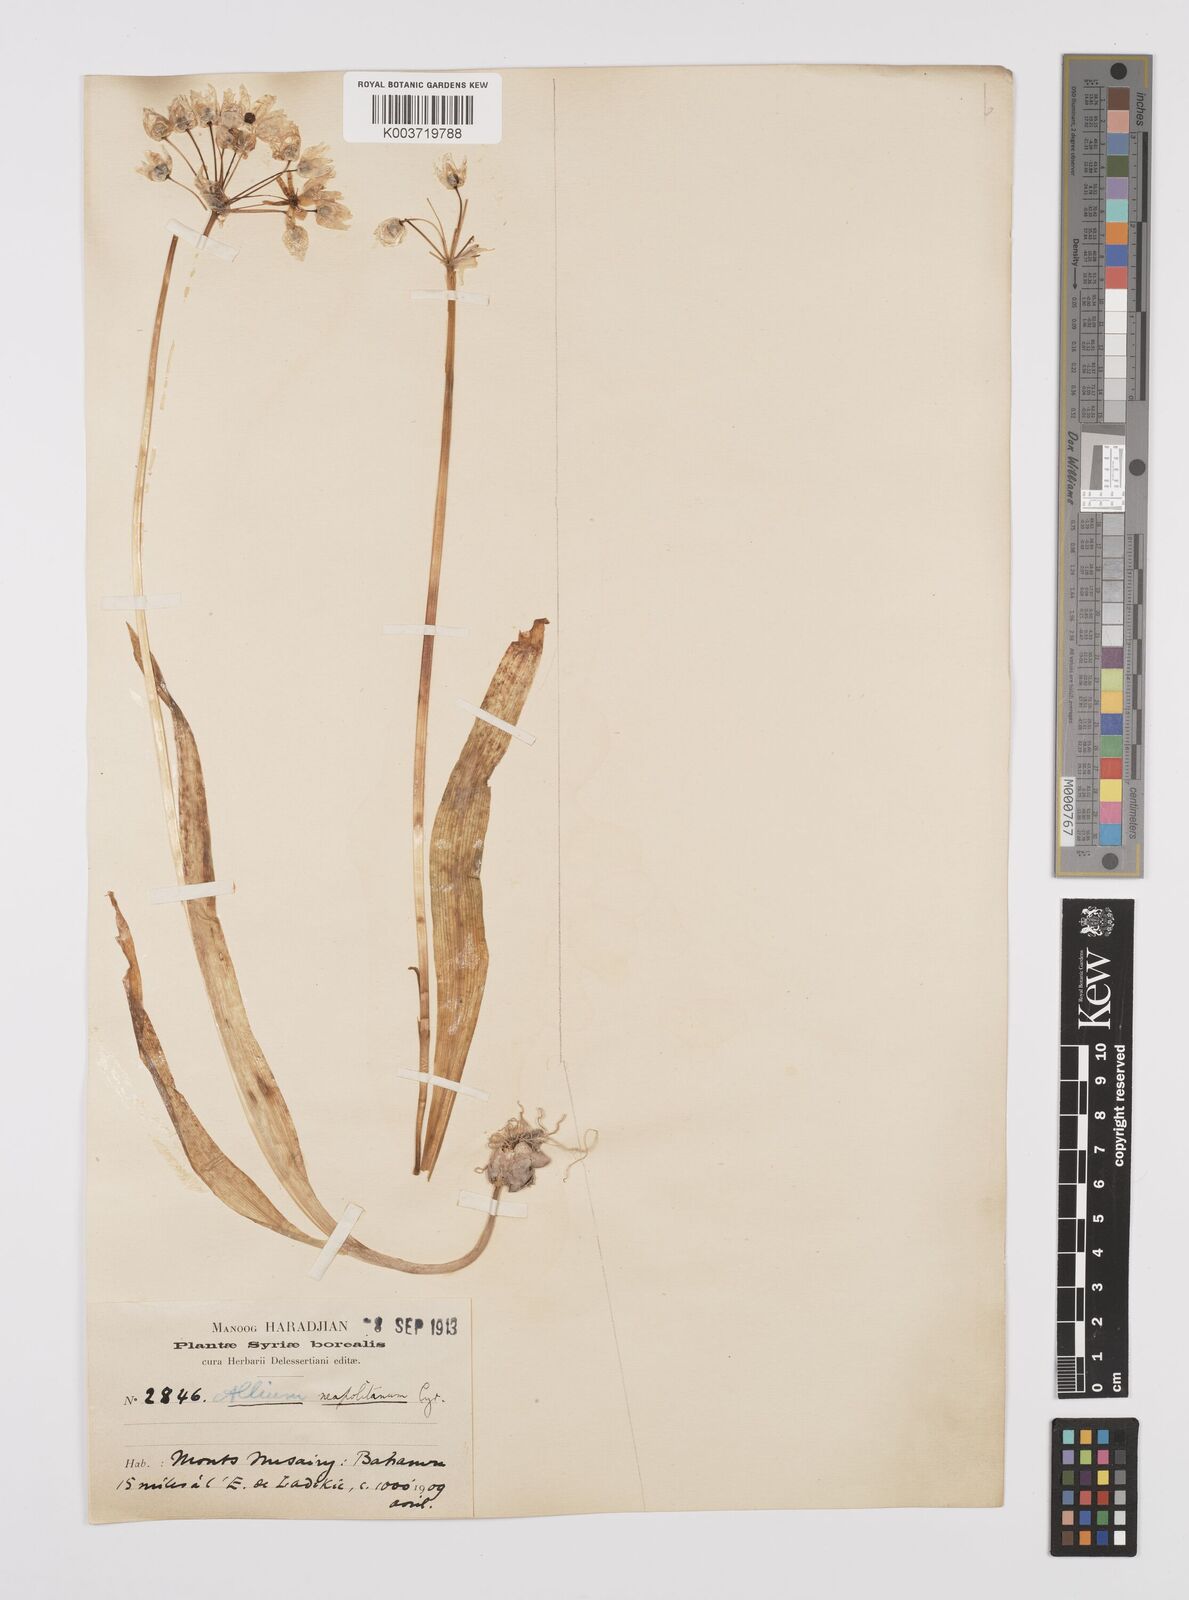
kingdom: Plantae
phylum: Tracheophyta
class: Liliopsida
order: Asparagales
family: Amaryllidaceae
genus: Allium
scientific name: Allium neapolitanum
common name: Neapolitan garlic
